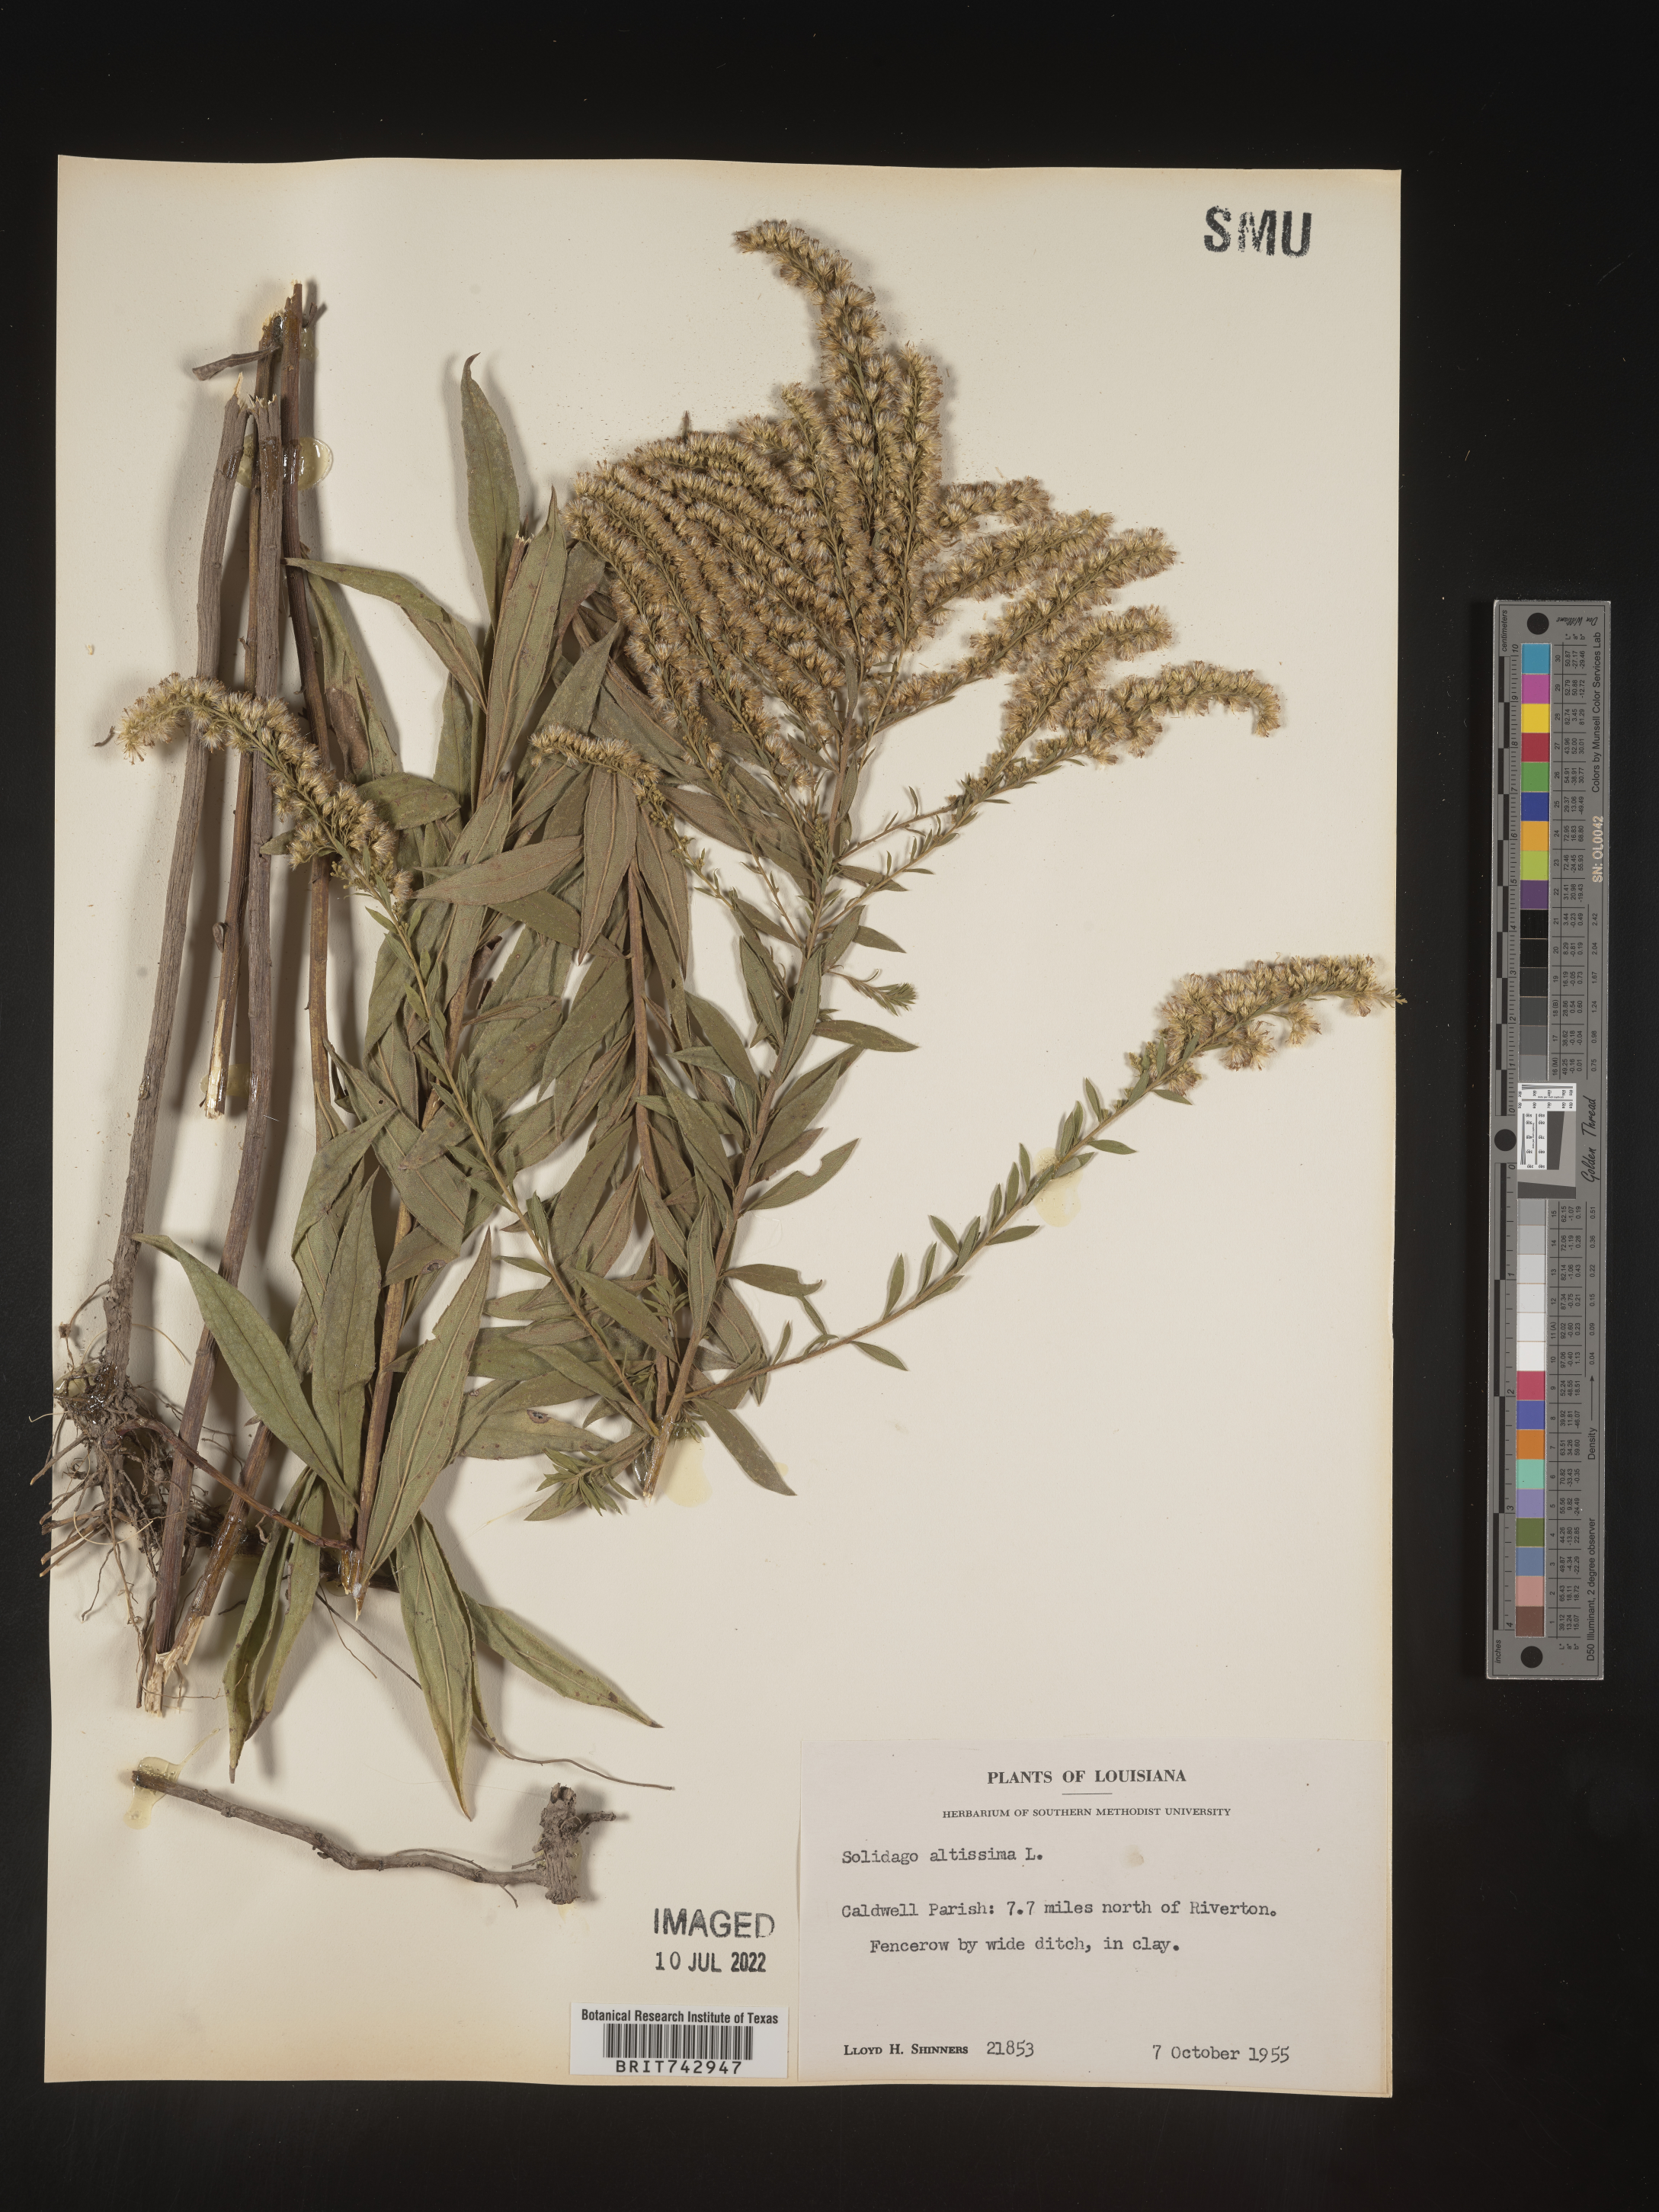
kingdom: Plantae
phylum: Tracheophyta
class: Magnoliopsida
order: Asterales
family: Asteraceae
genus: Solidago
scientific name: Solidago altissima
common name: Late goldenrod
